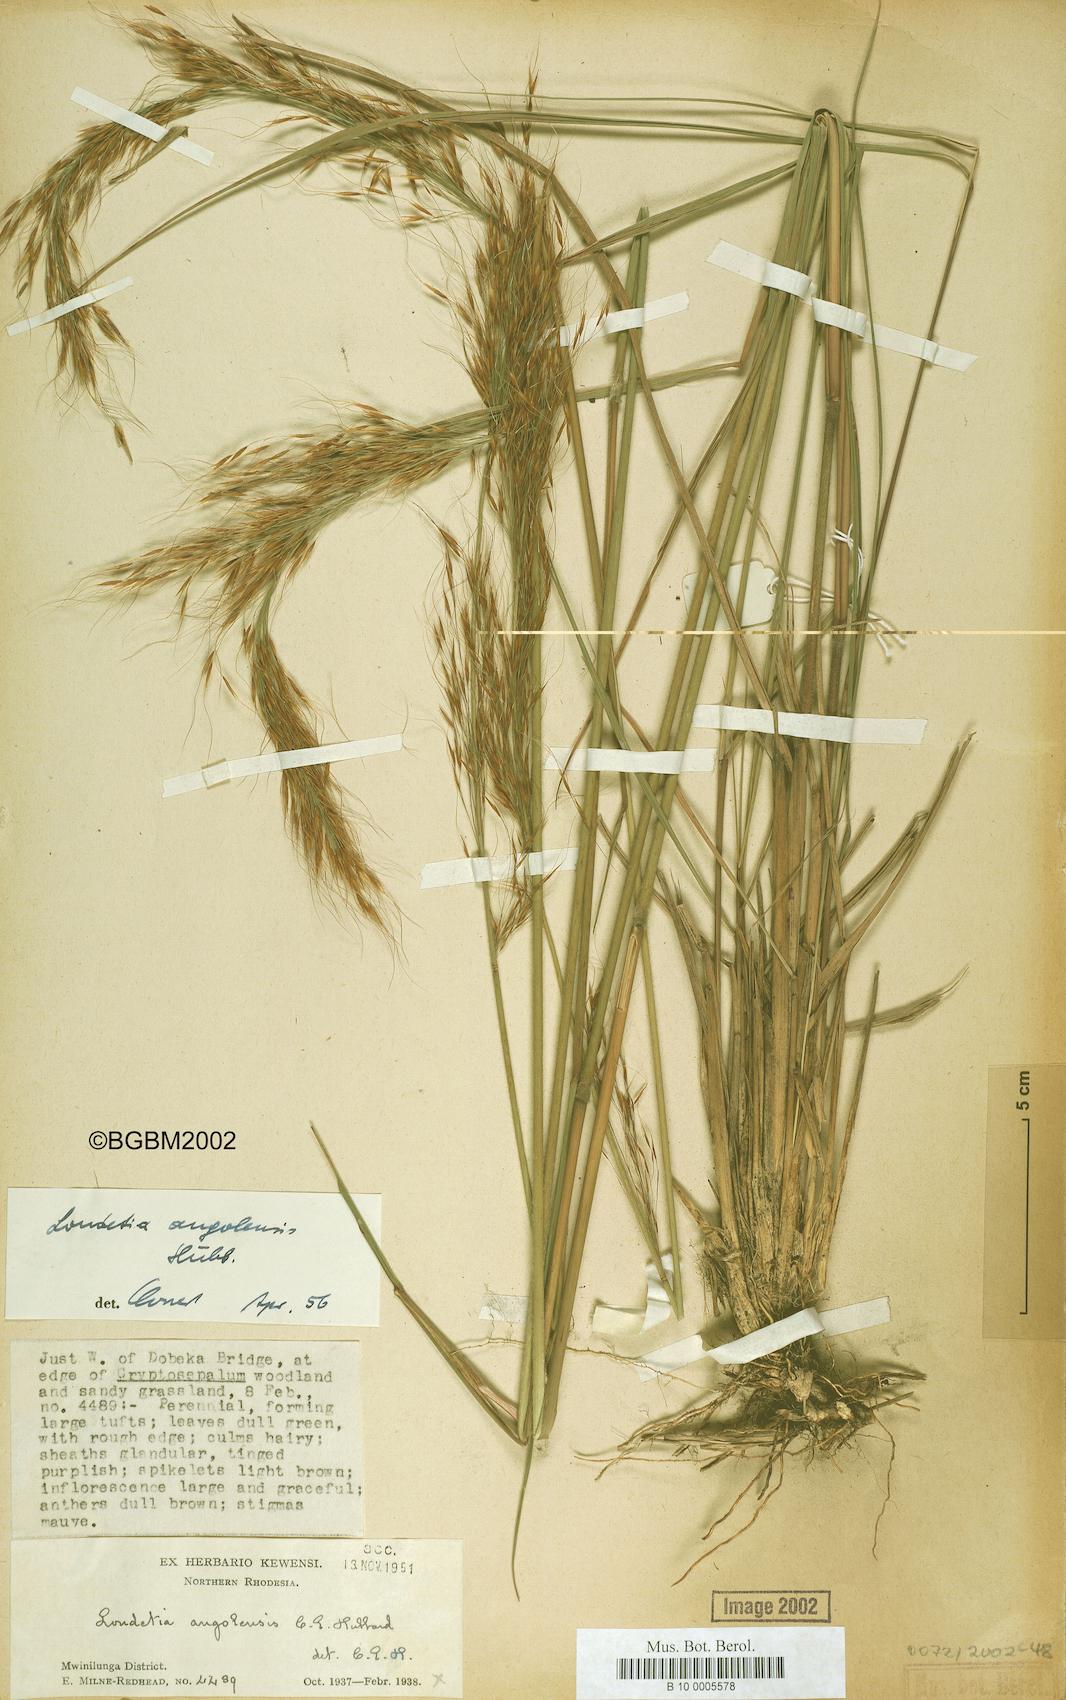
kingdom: Plantae
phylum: Tracheophyta
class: Liliopsida
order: Poales
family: Poaceae
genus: Loudetia
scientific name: Loudetia angolensis
